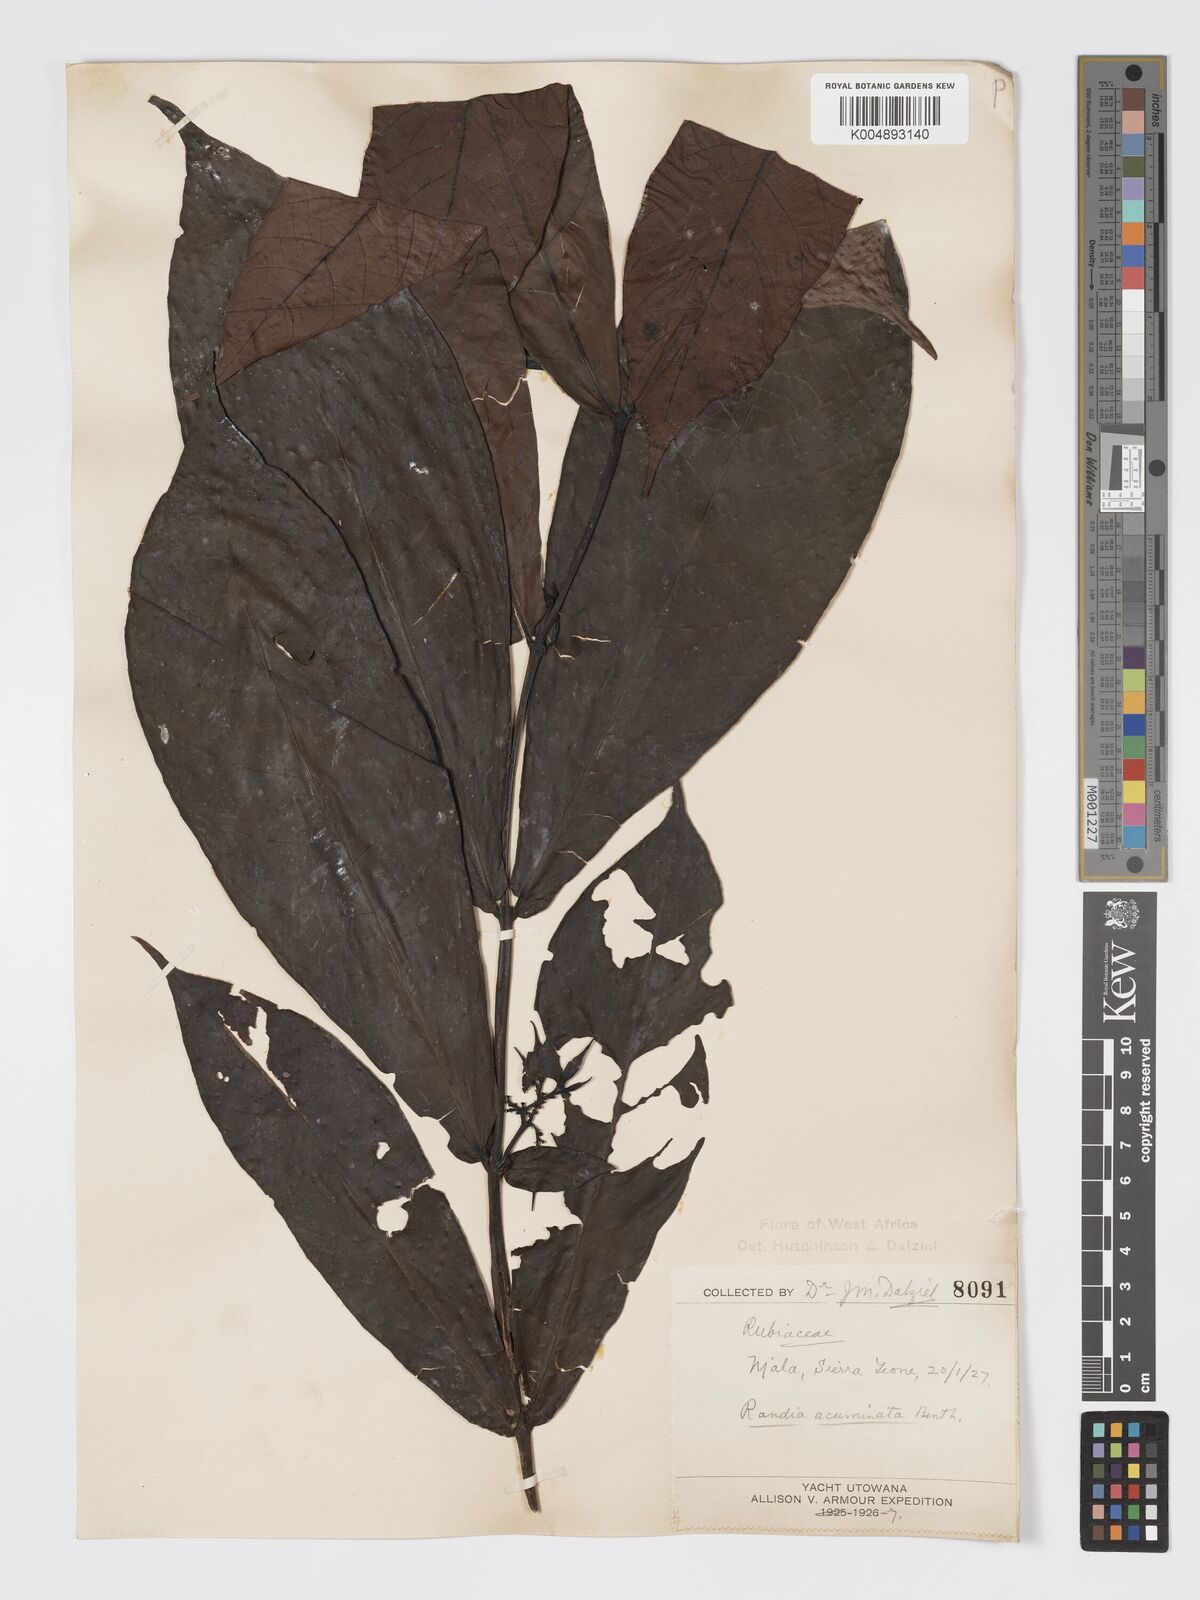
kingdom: Plantae
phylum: Tracheophyta
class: Magnoliopsida
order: Gentianales
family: Rubiaceae
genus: Massularia
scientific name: Massularia acuminata
